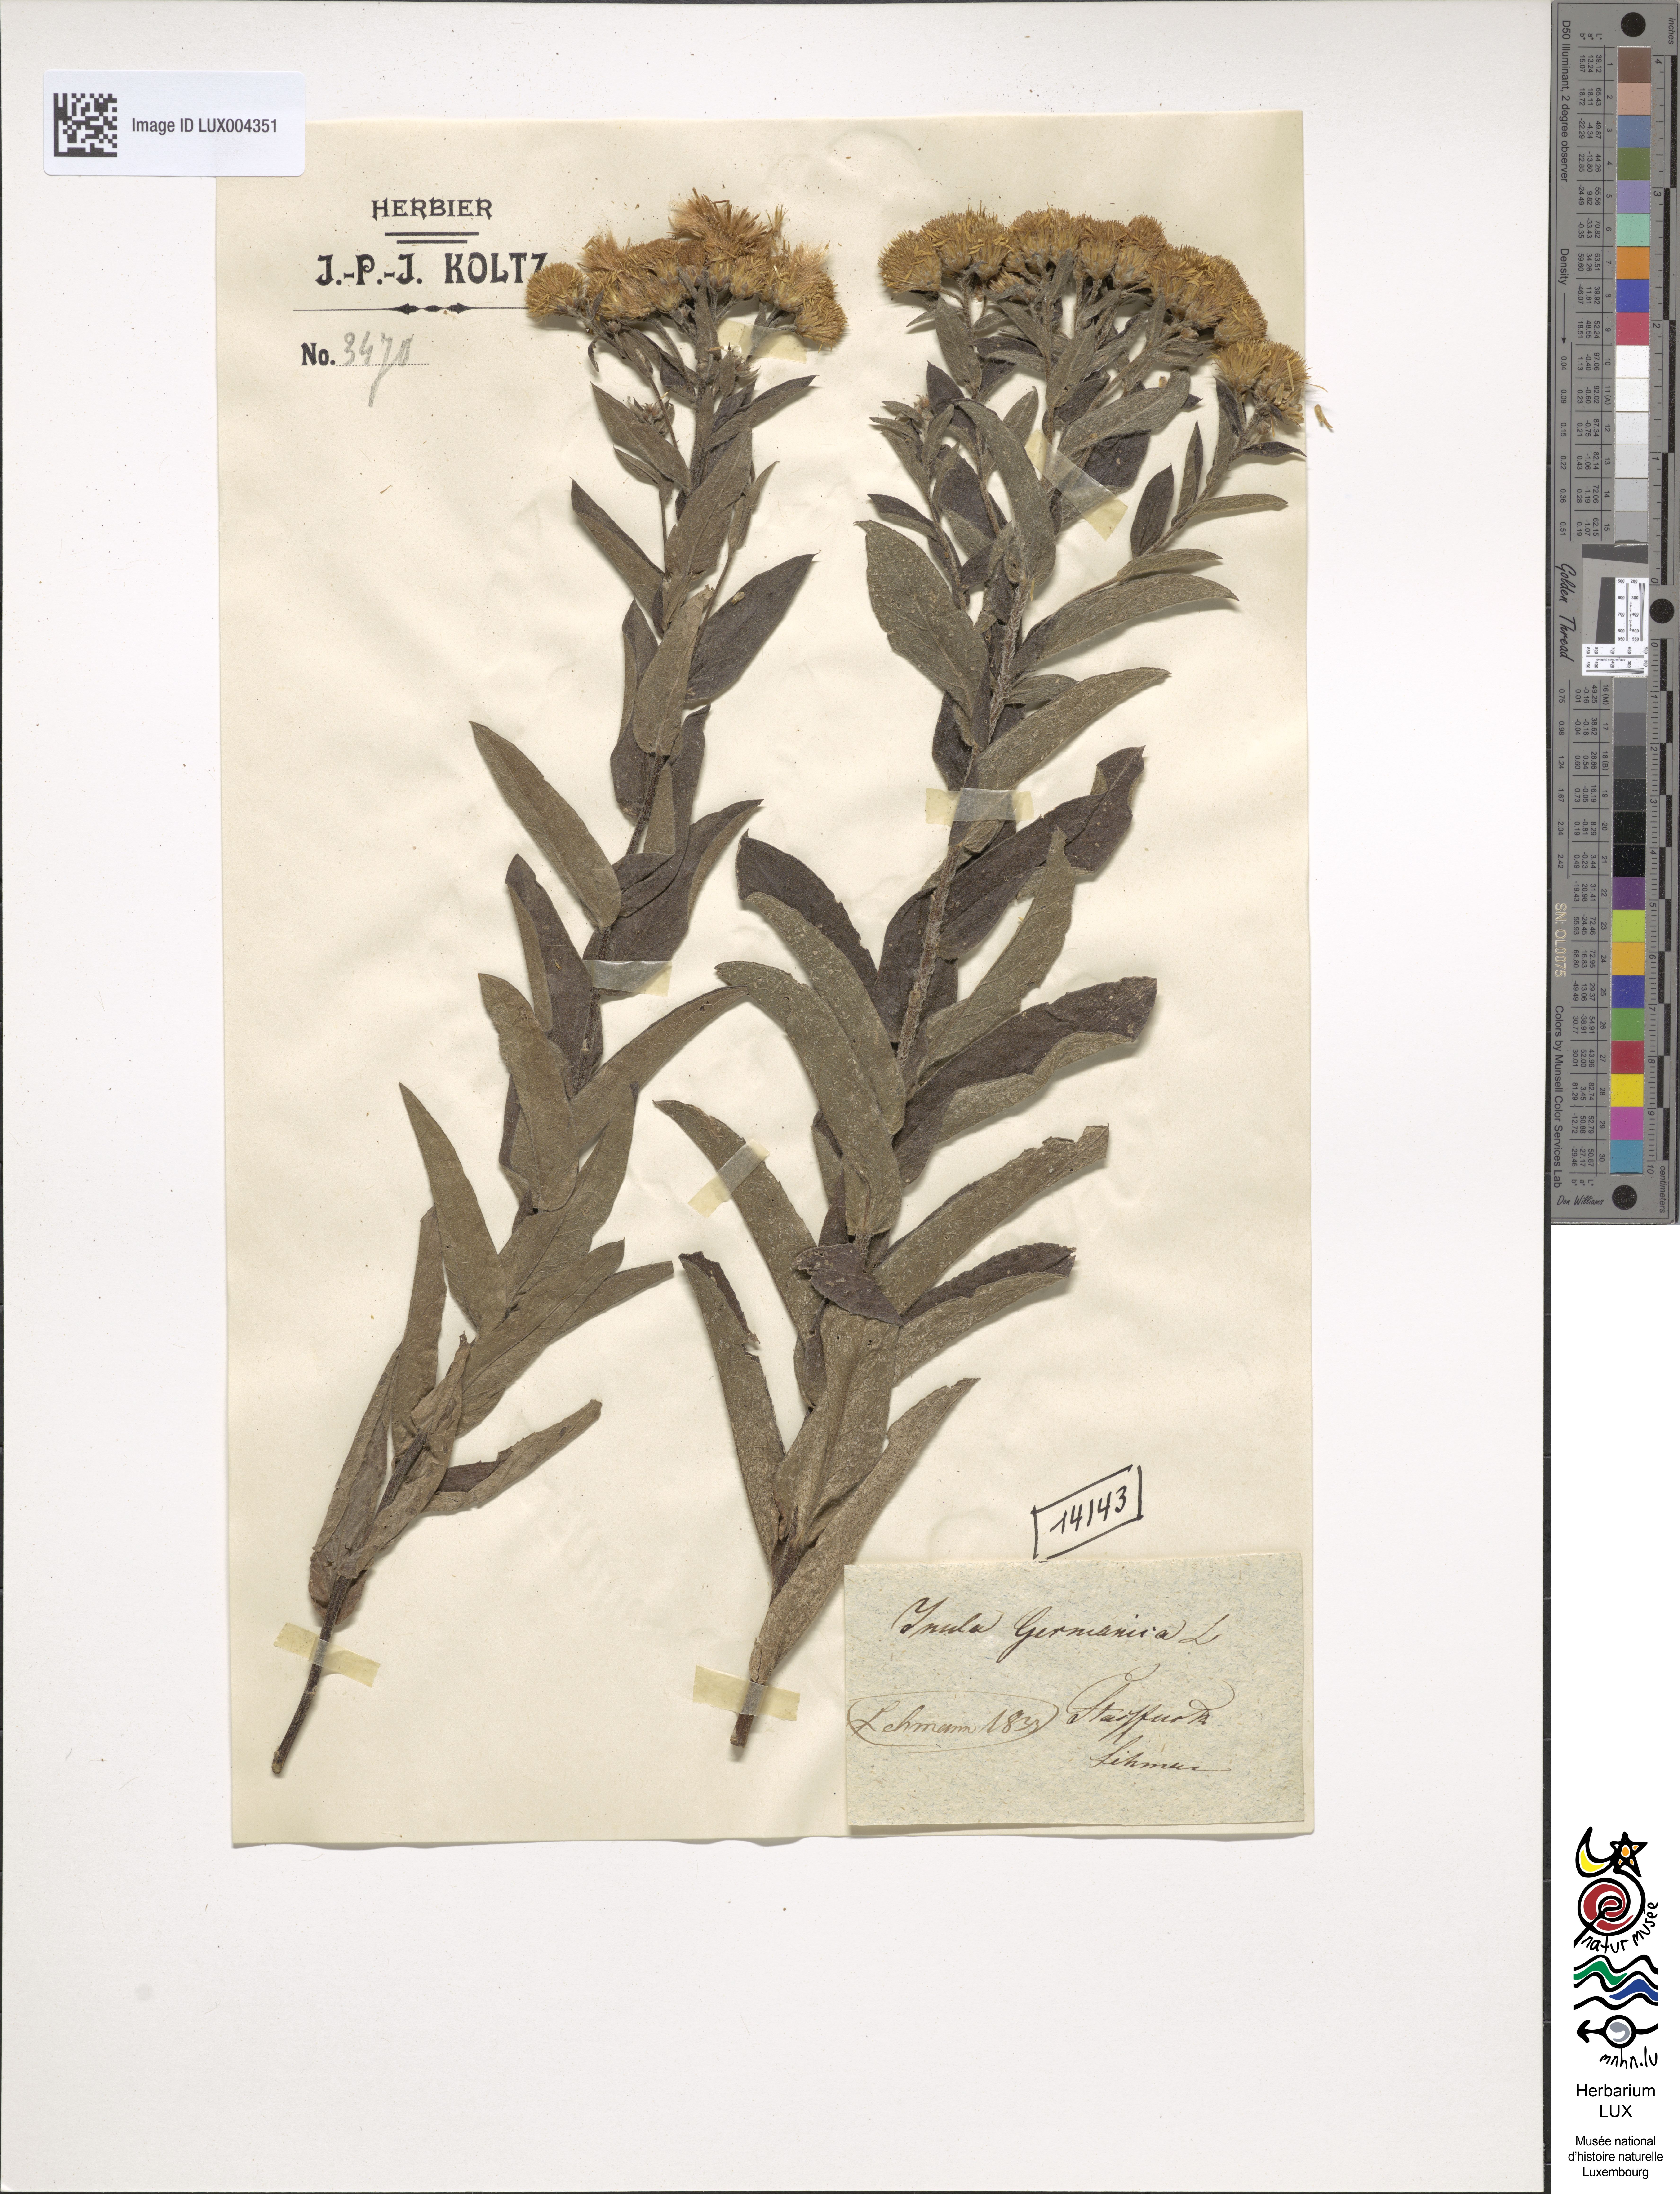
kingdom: Plantae
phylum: Tracheophyta
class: Magnoliopsida
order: Asterales
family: Asteraceae
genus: Pentanema
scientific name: Pentanema germanicum
